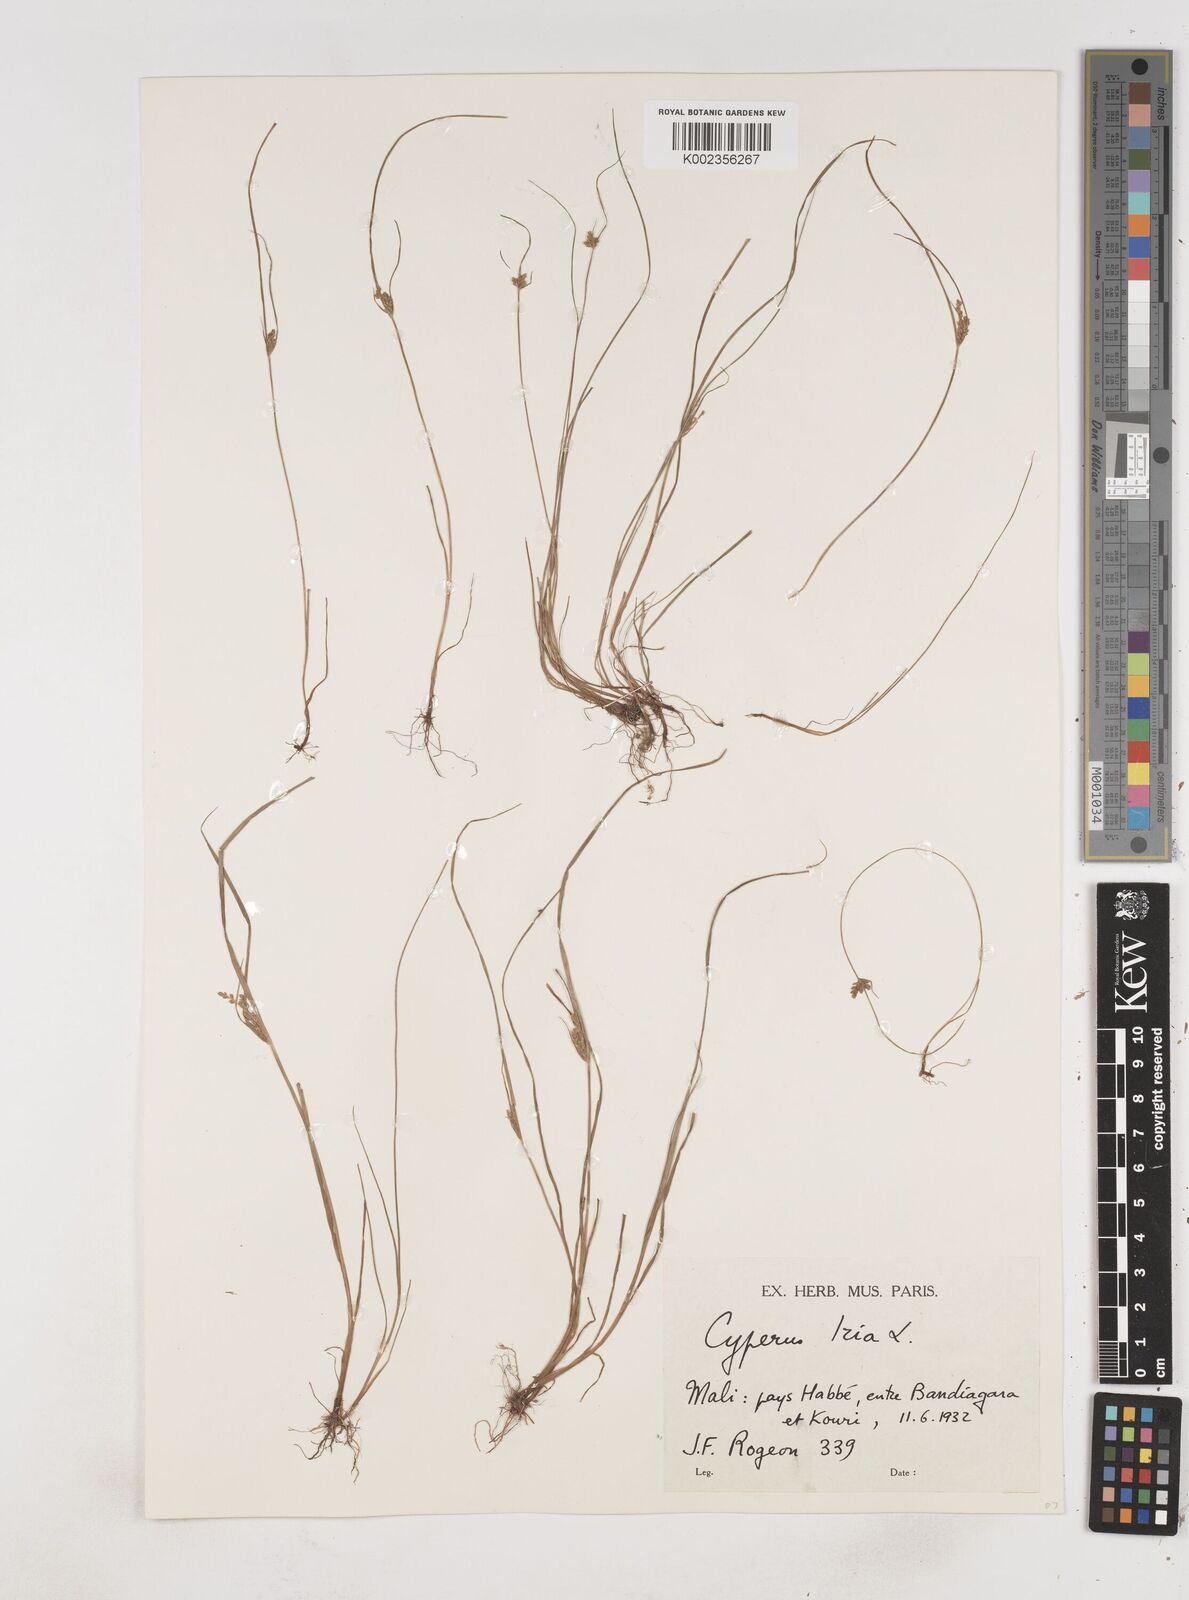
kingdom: Plantae
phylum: Tracheophyta
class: Liliopsida
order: Poales
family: Cyperaceae
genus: Cyperus
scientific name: Cyperus iria
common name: Ricefield flatsedge
